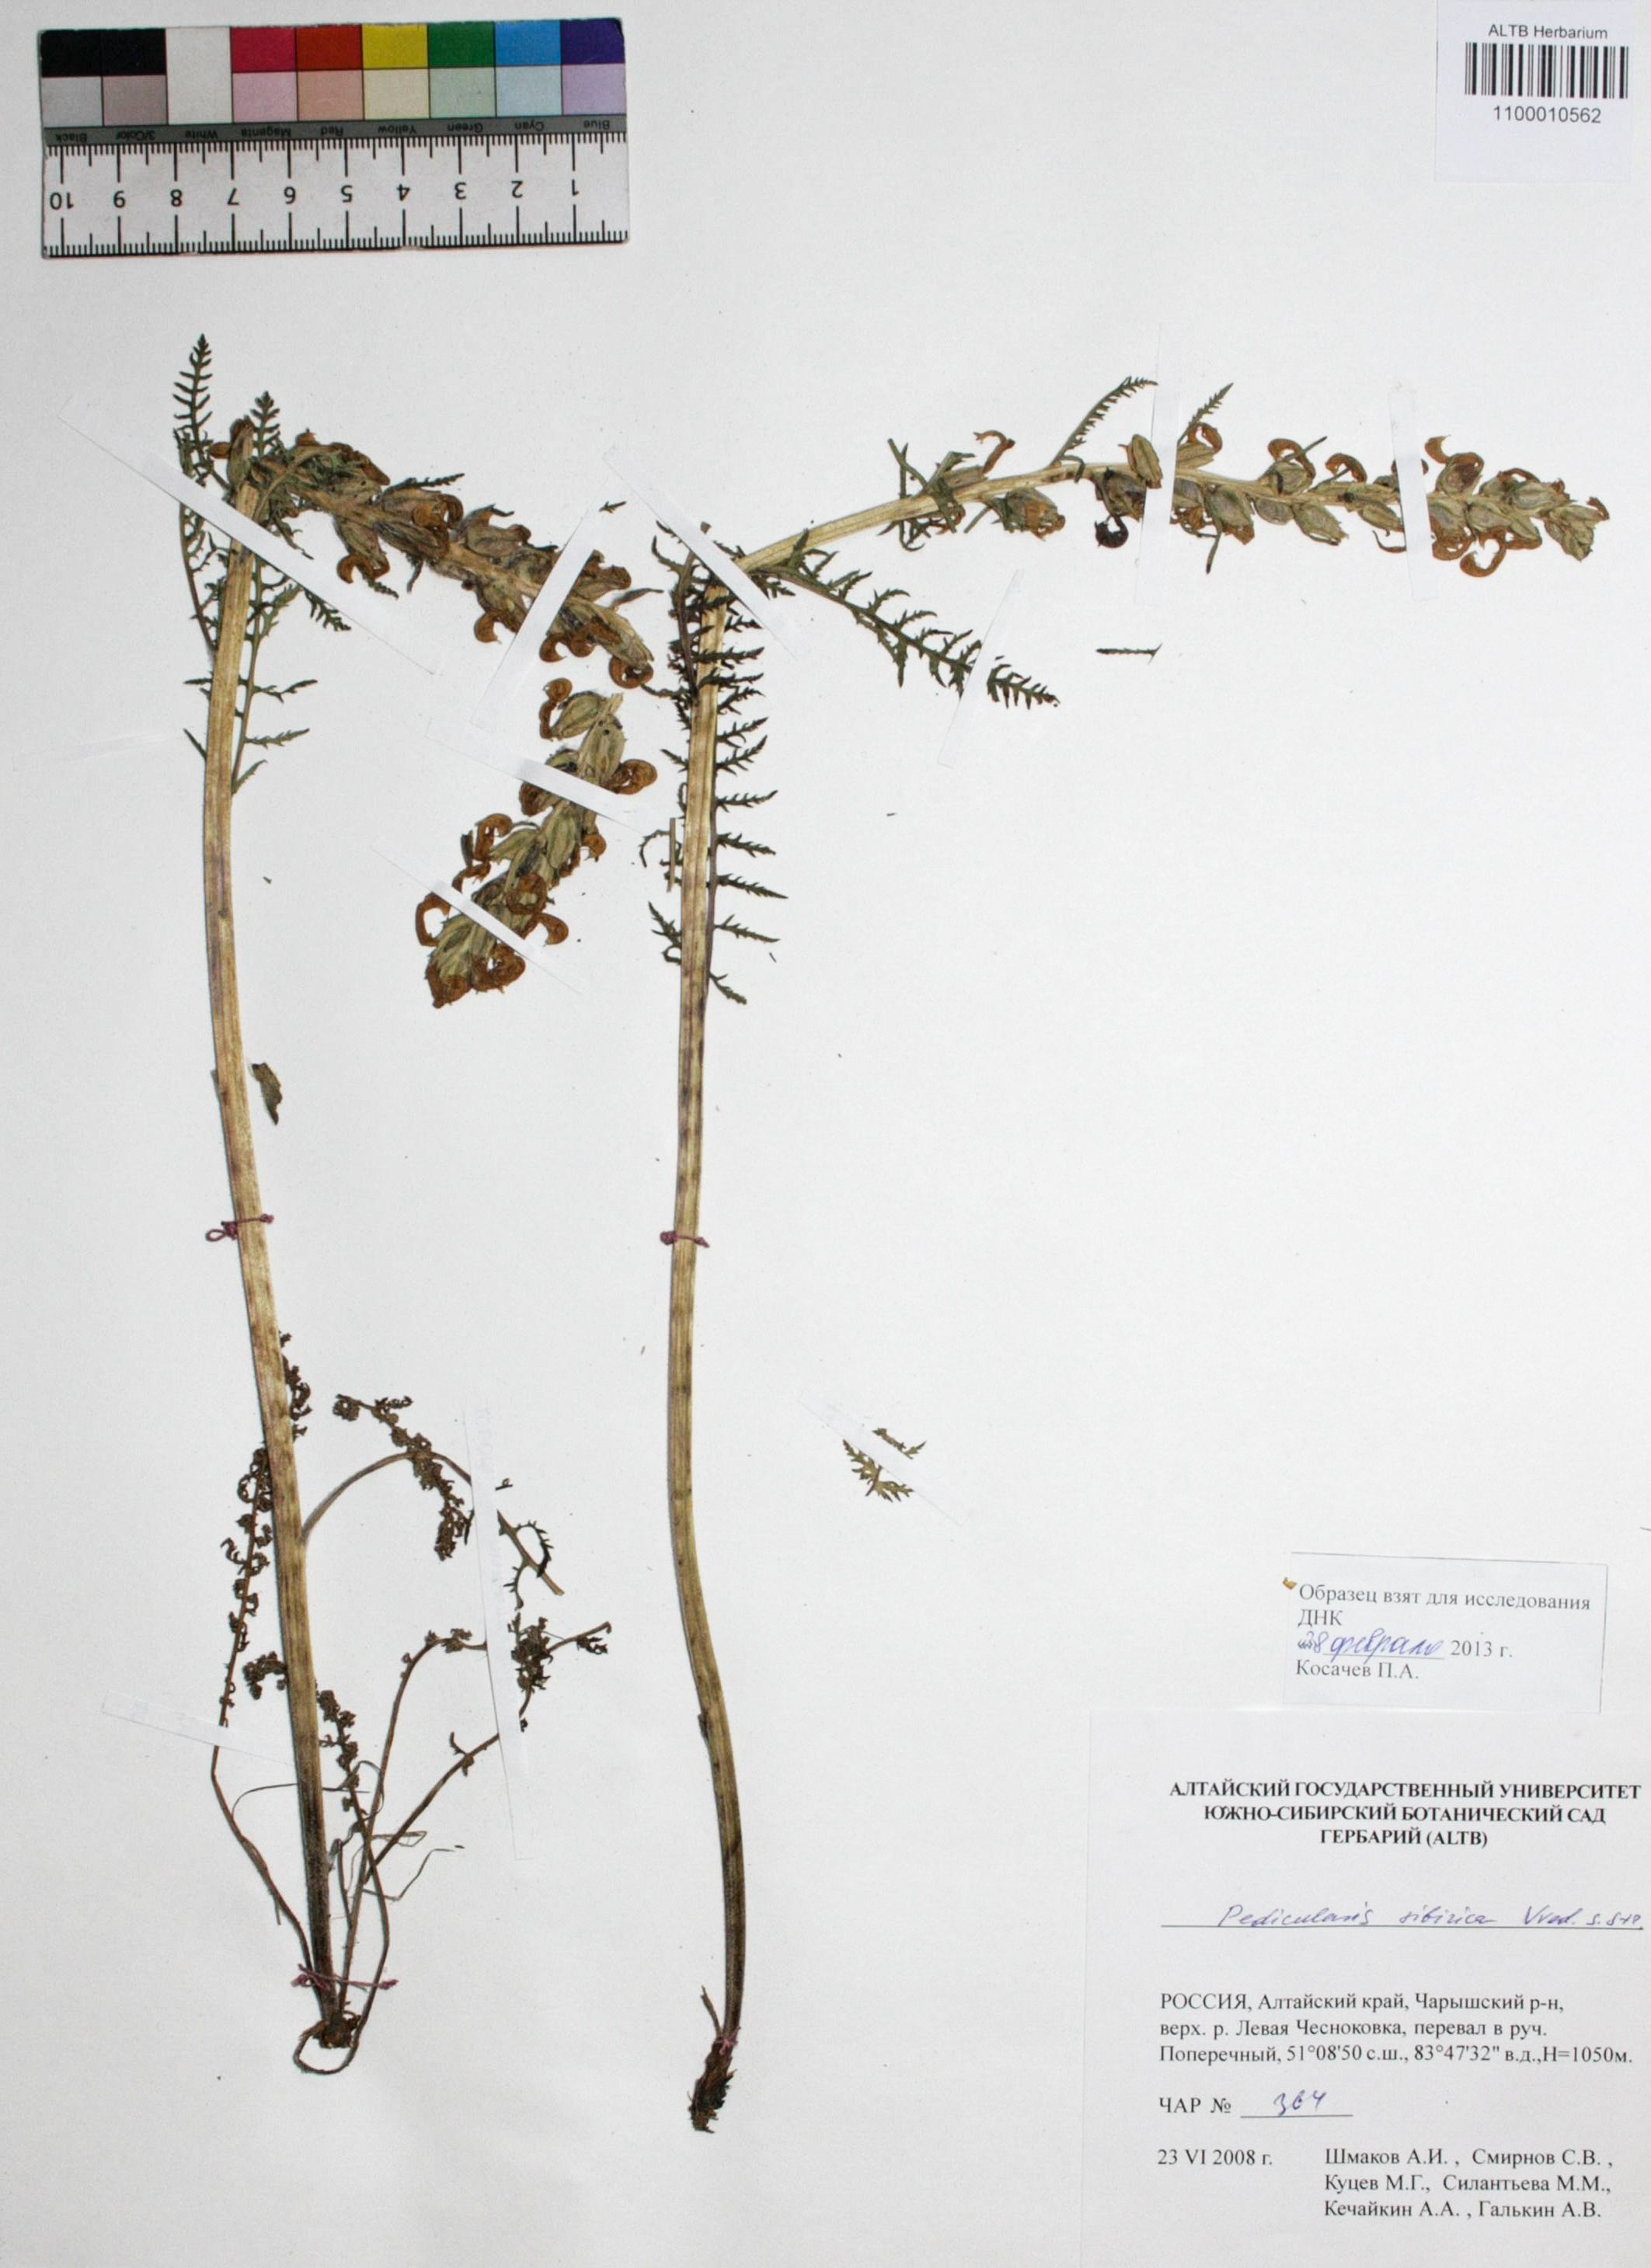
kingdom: Plantae
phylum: Tracheophyta
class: Magnoliopsida
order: Lamiales
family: Orobanchaceae
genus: Pedicularis
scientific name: Pedicularis sibirica
